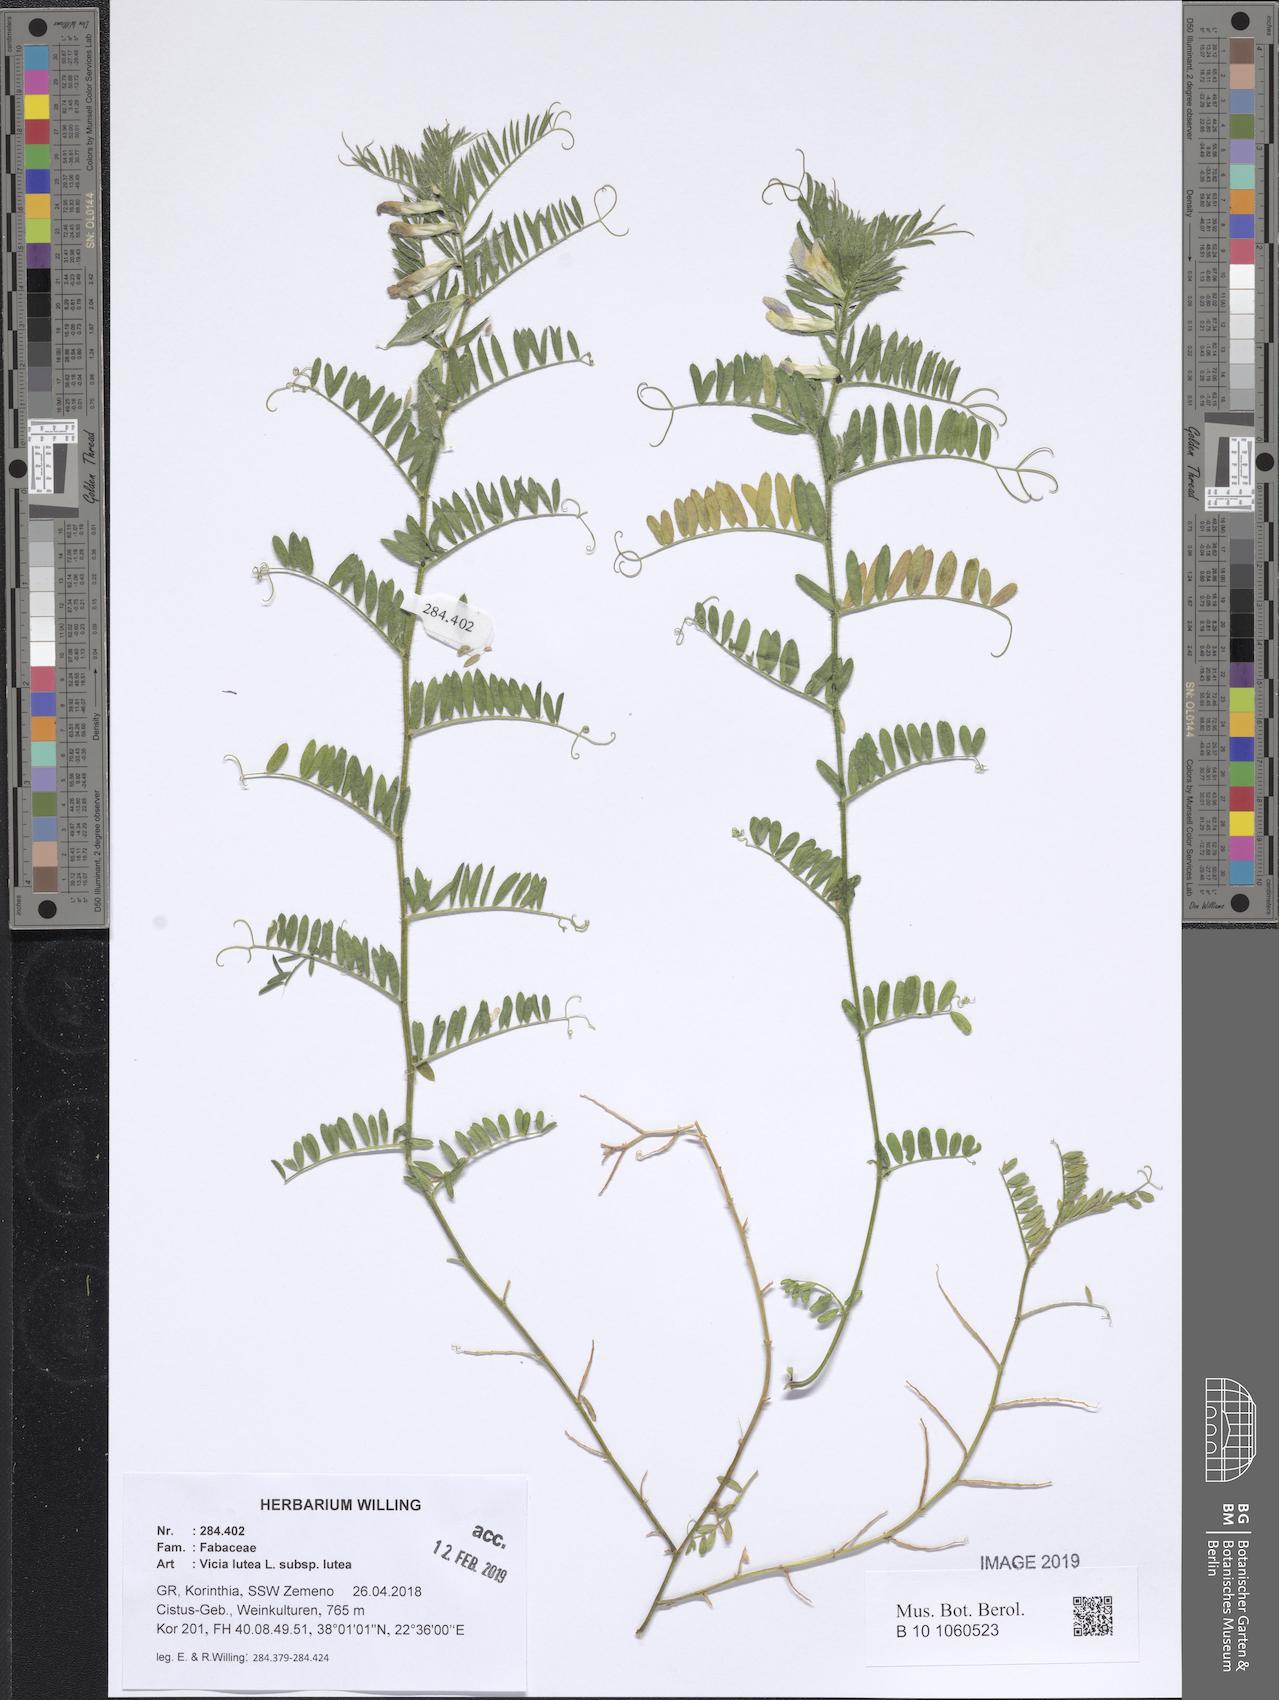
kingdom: Plantae
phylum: Tracheophyta
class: Magnoliopsida
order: Fabales
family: Fabaceae
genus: Vicia
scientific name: Vicia lutea
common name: Smooth yellow vetch
